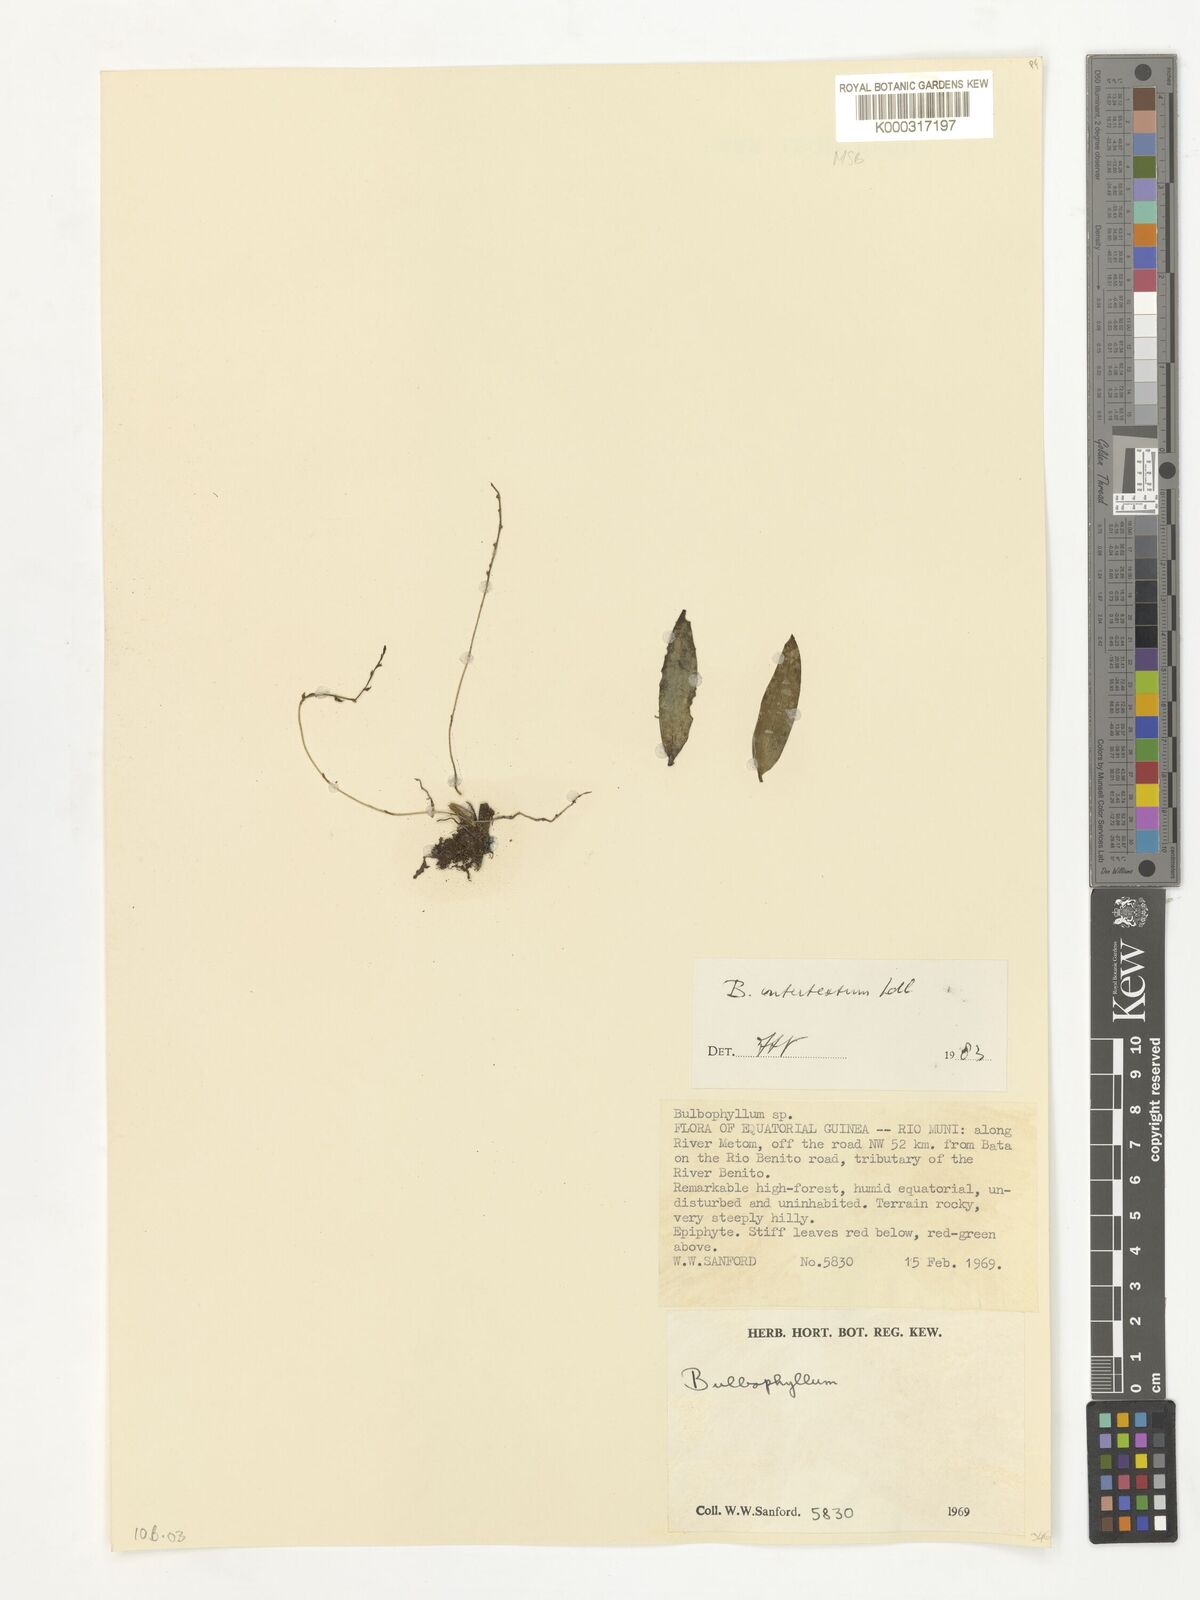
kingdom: Plantae
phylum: Tracheophyta
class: Liliopsida
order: Asparagales
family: Orchidaceae
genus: Bulbophyllum
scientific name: Bulbophyllum intertextum
